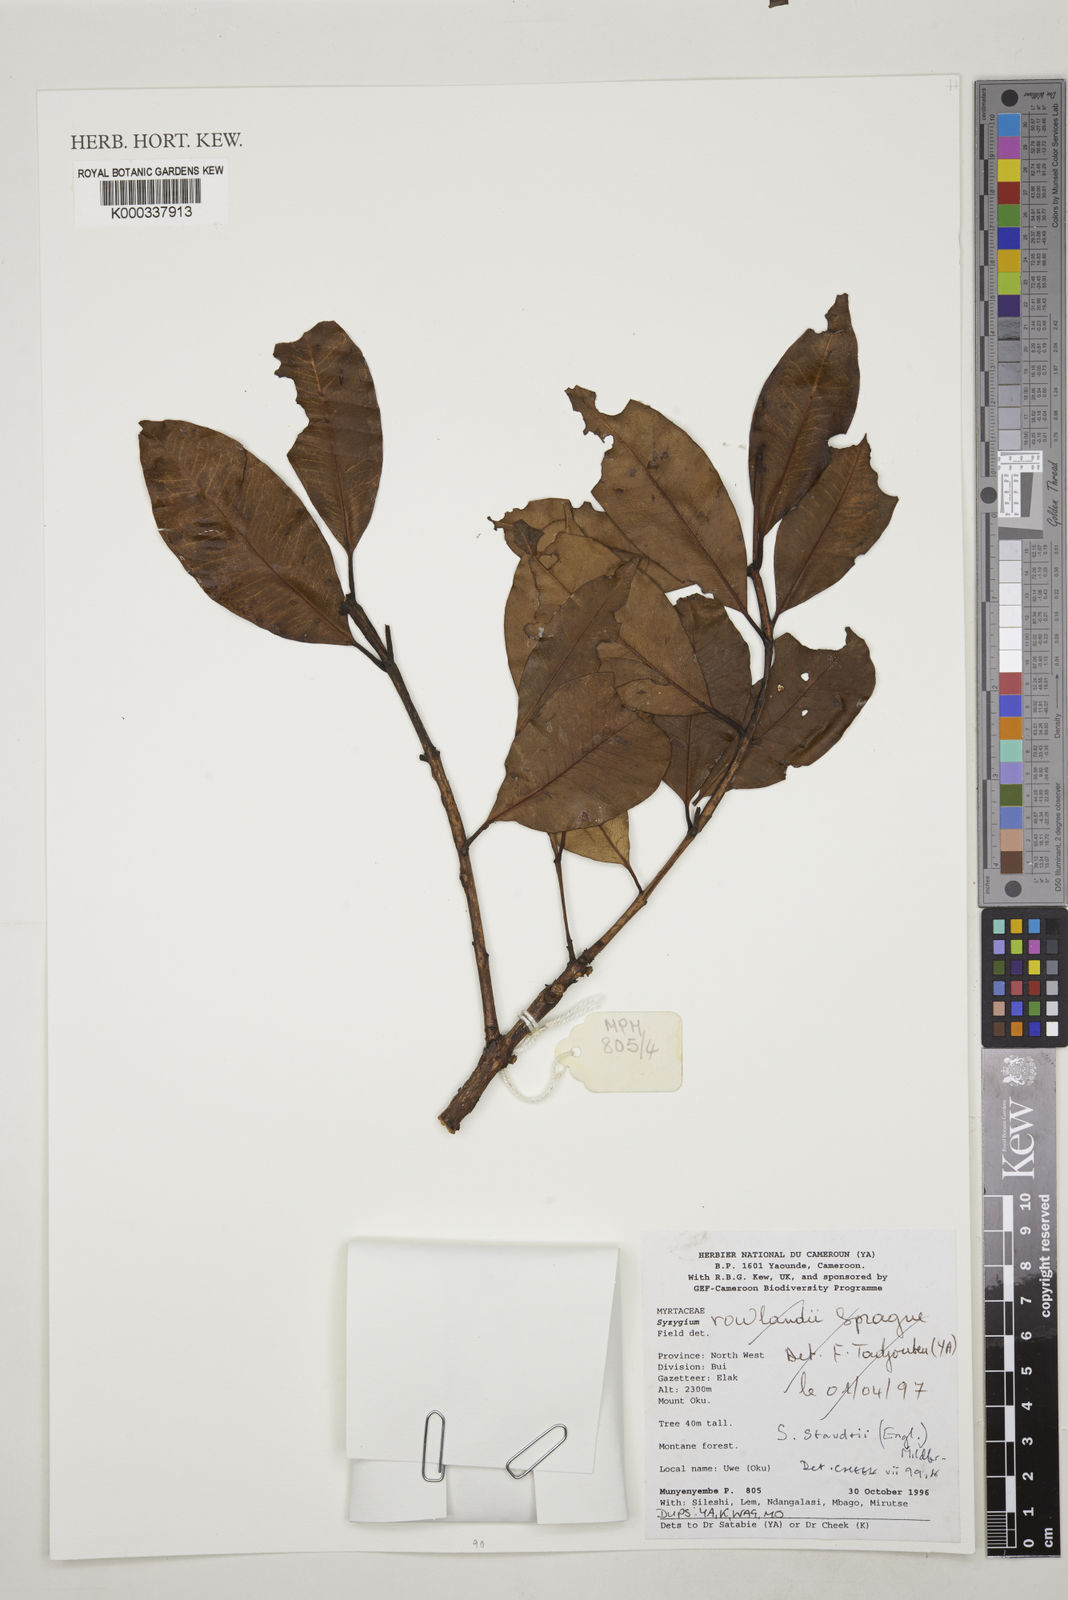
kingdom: Plantae
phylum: Tracheophyta
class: Magnoliopsida
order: Myrtales
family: Myrtaceae
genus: Syzygium
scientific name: Syzygium staudtii
